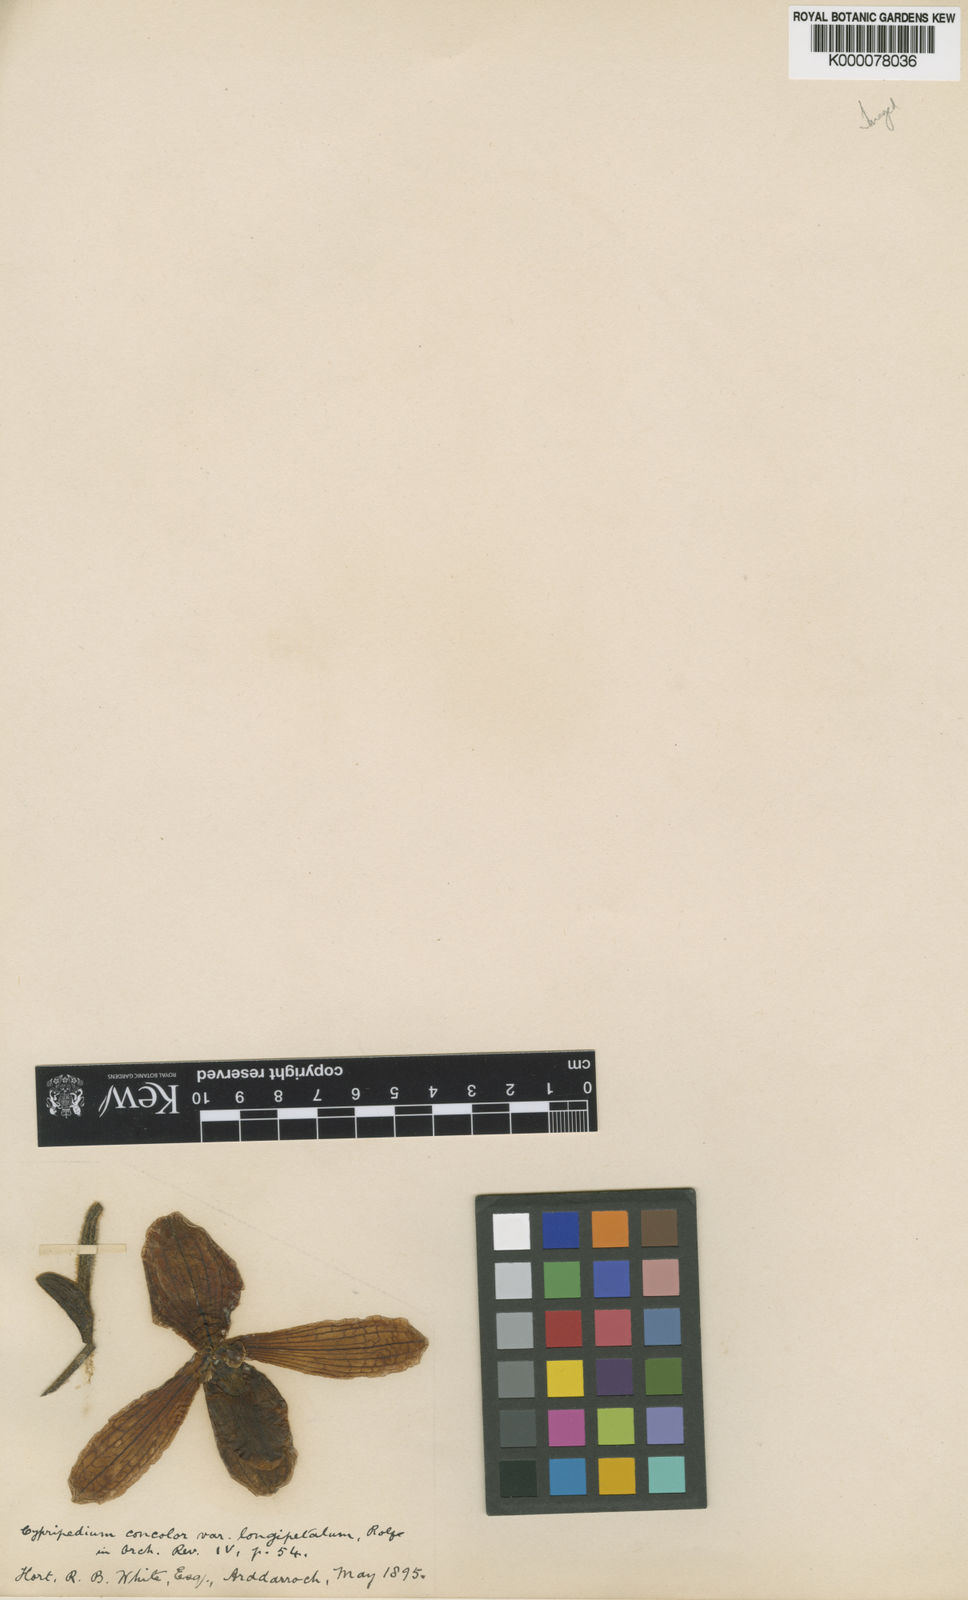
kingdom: Plantae
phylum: Tracheophyta
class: Liliopsida
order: Asparagales
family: Orchidaceae
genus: Paphiopedilum
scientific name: Paphiopedilum concolor
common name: One colored paphiopedilum
